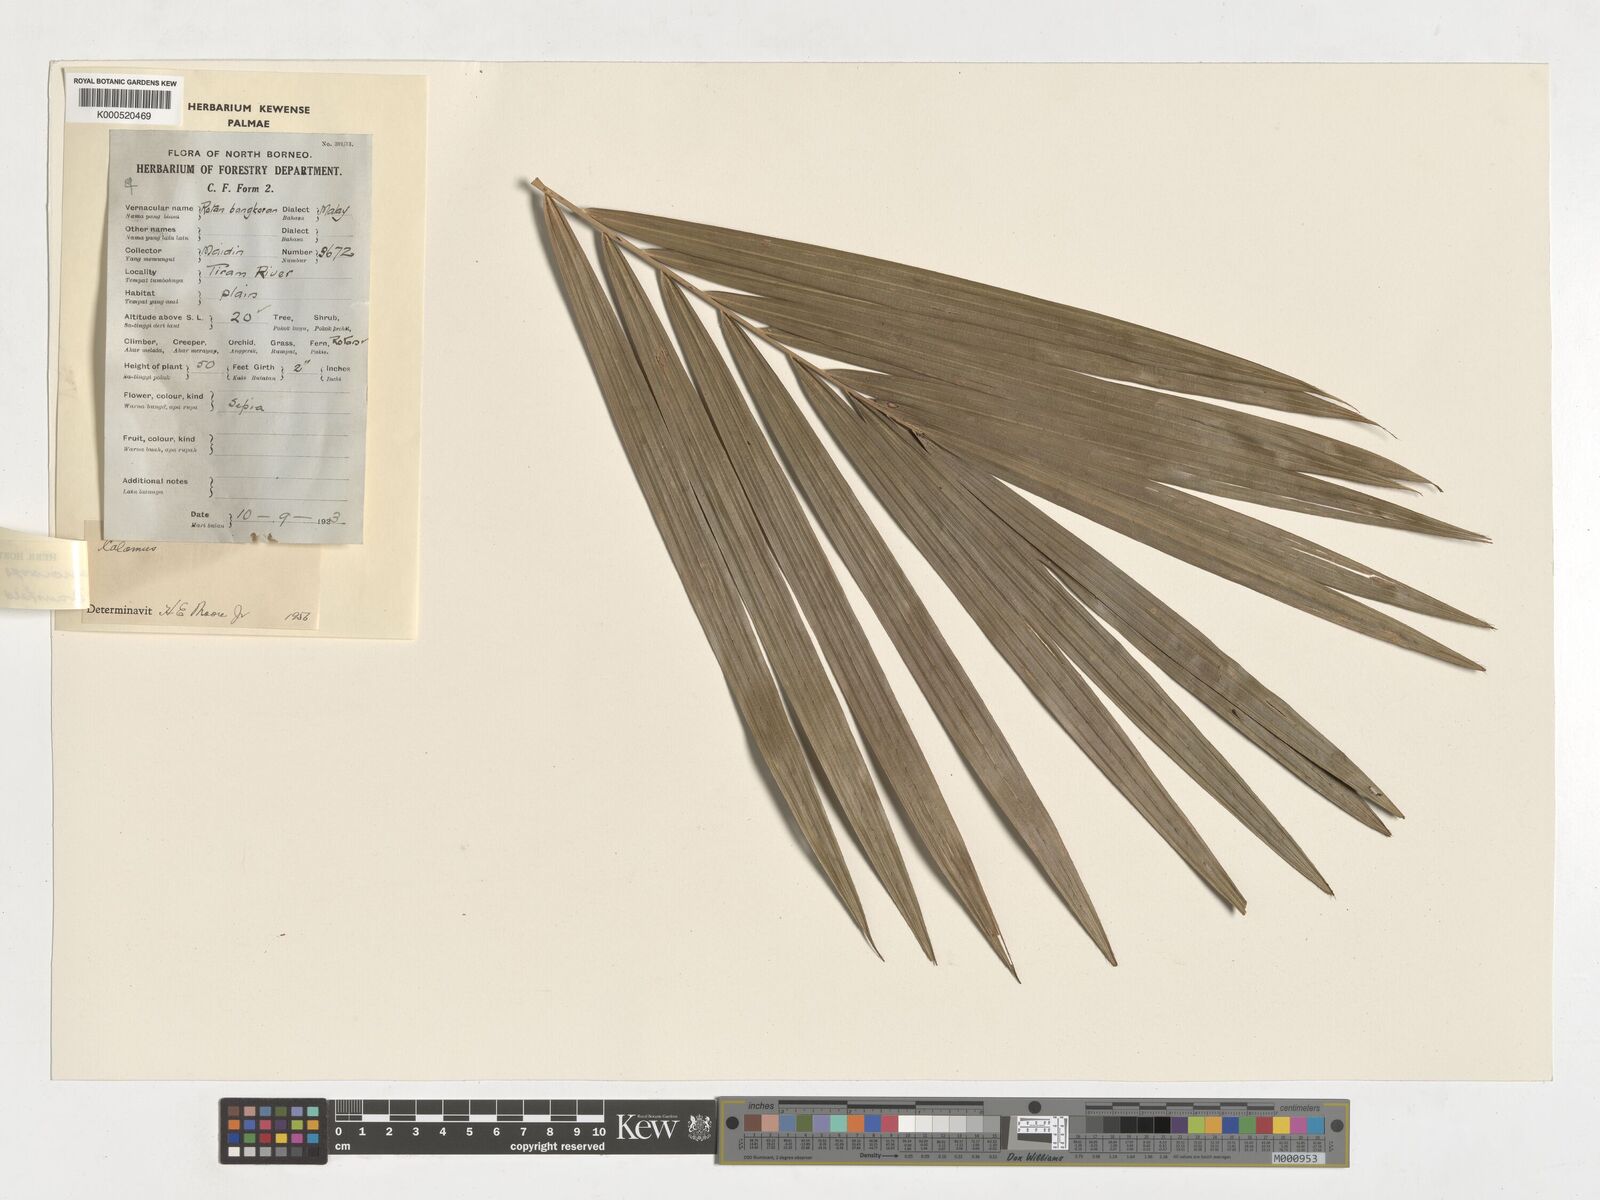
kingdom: Plantae
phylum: Tracheophyta
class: Liliopsida
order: Arecales
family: Arecaceae
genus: Calamus
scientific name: Calamus oblongus
